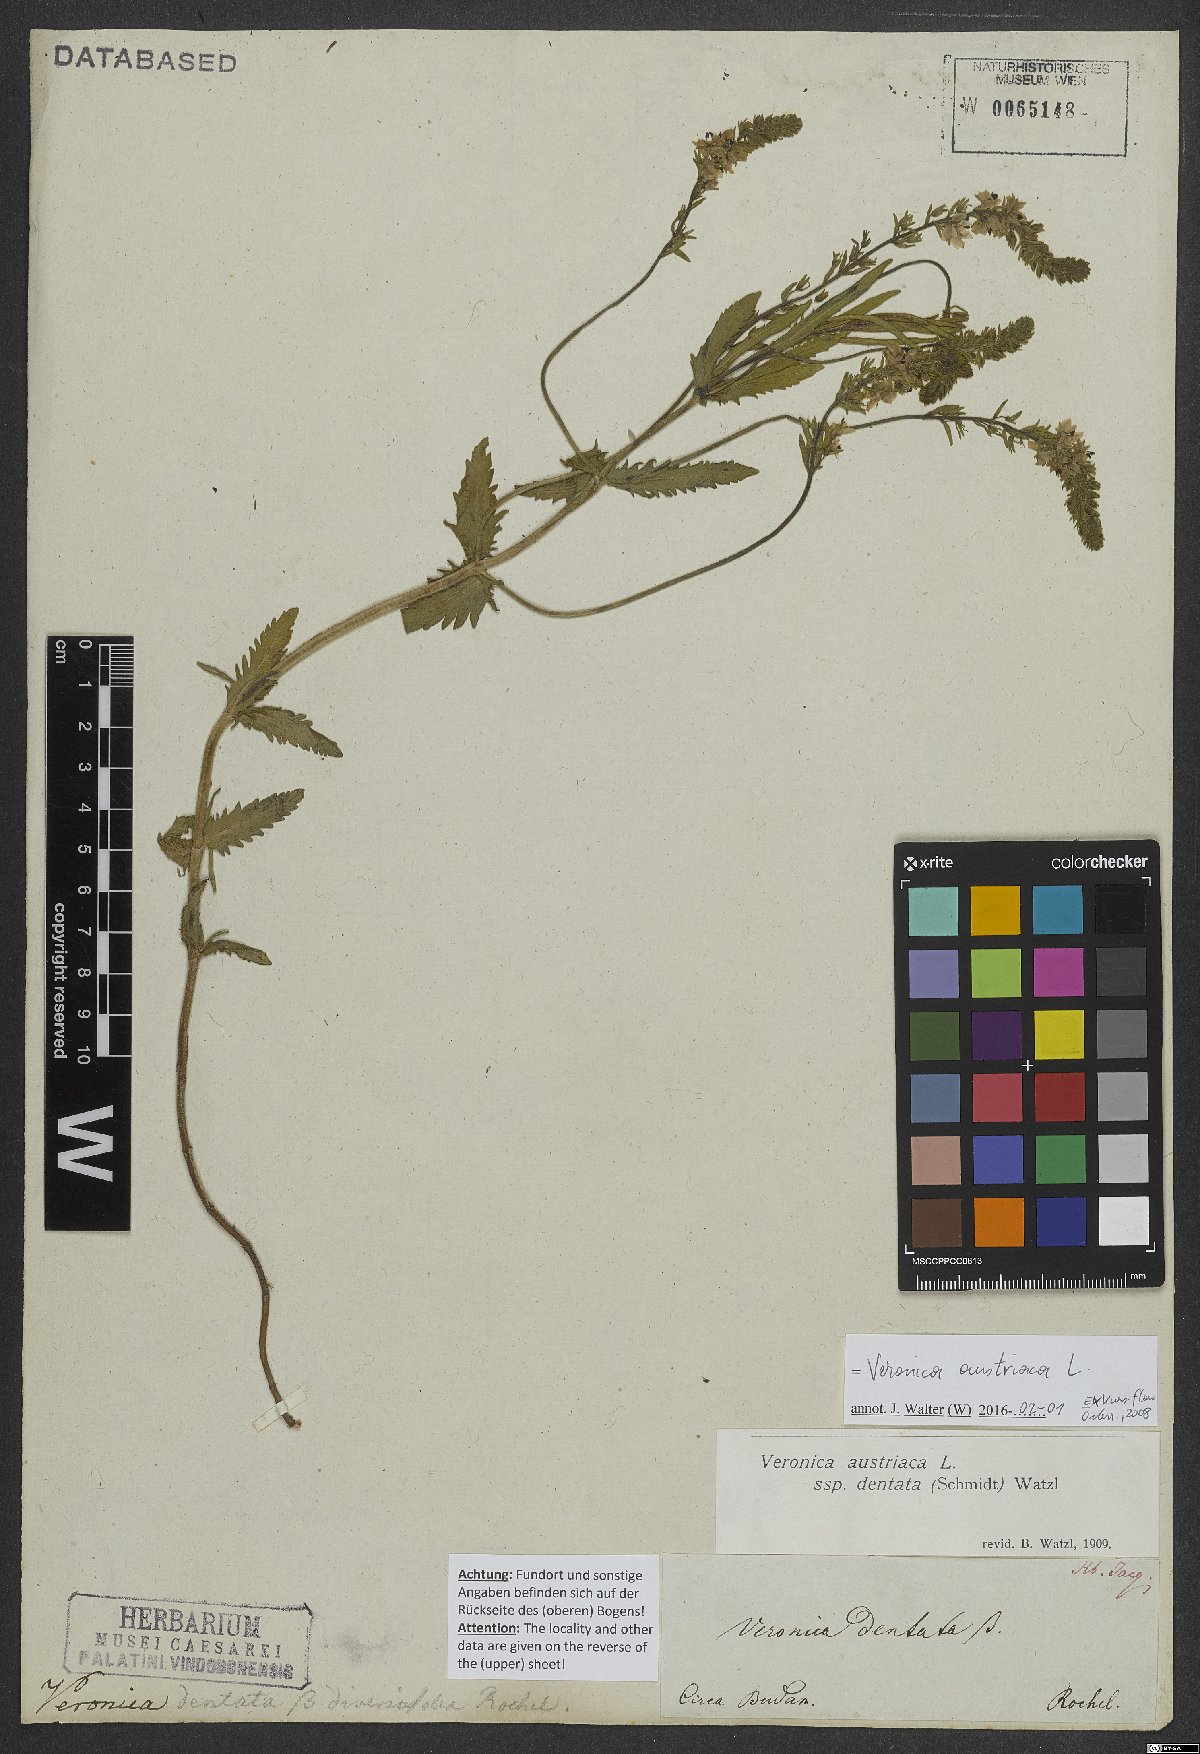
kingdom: Plantae
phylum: Tracheophyta
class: Magnoliopsida
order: Lamiales
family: Plantaginaceae
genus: Veronica
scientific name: Veronica austriaca
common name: Large speedwell
